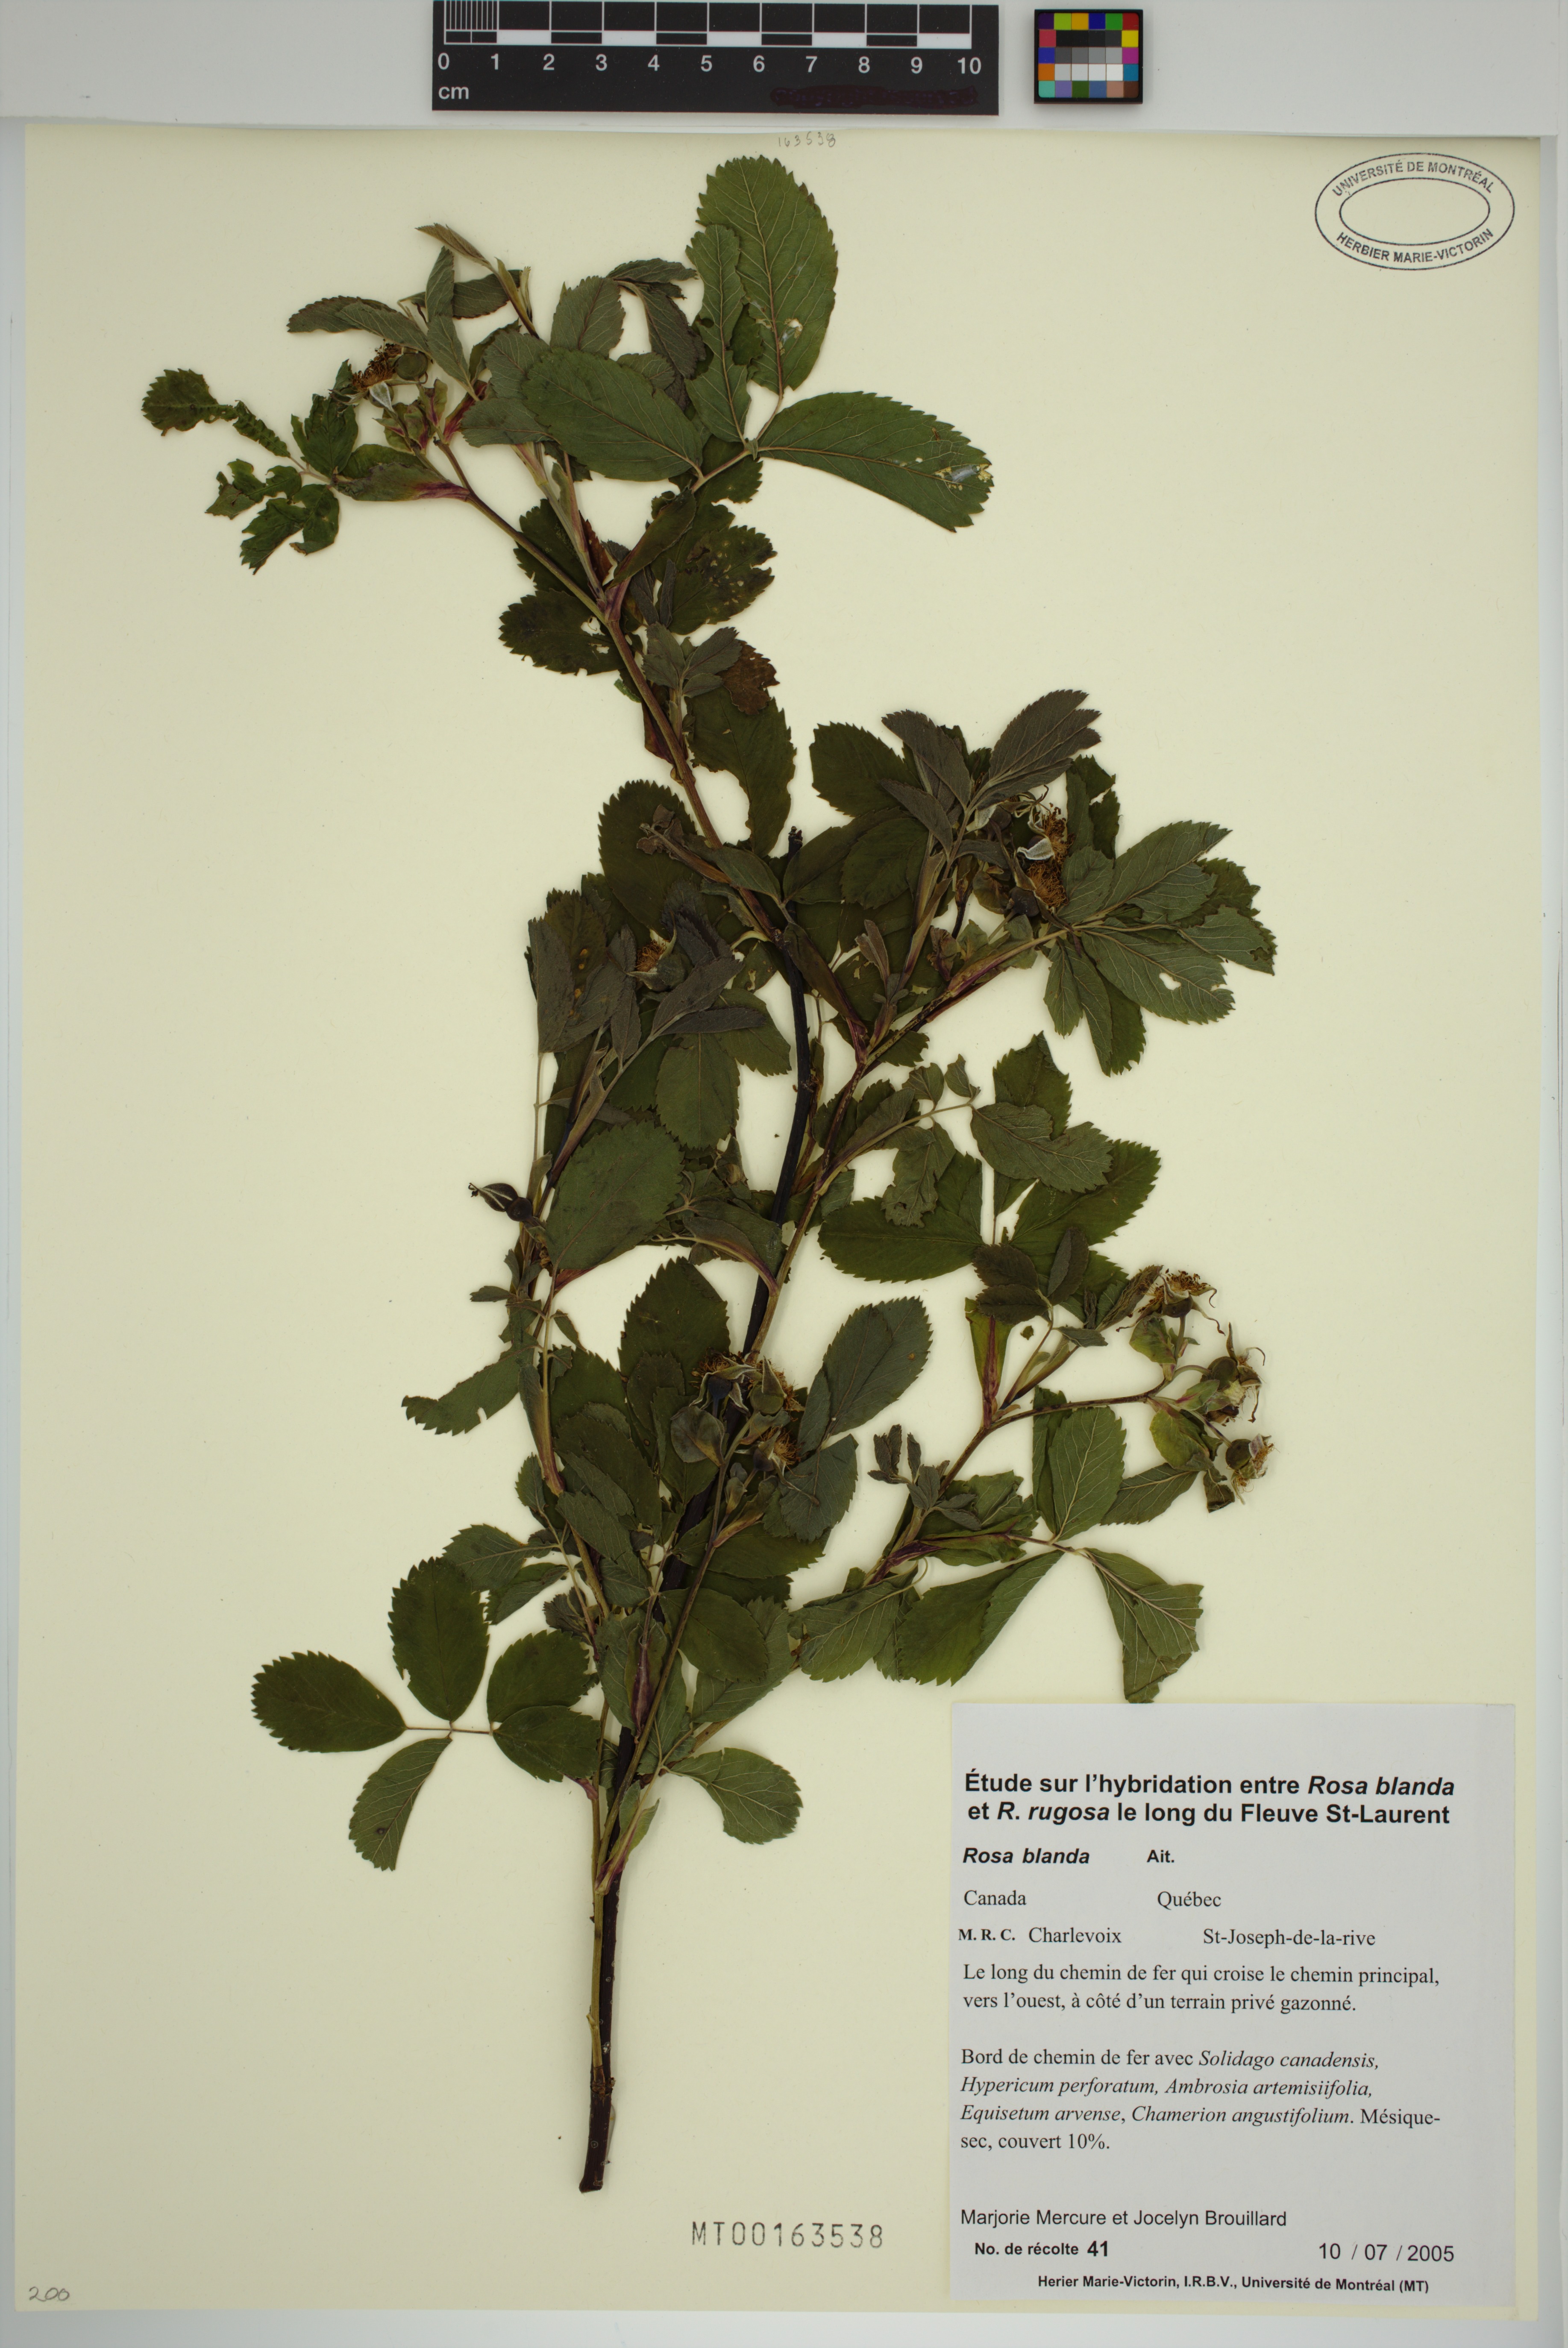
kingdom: Plantae
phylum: Tracheophyta
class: Magnoliopsida
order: Rosales
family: Rosaceae
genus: Rosa
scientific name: Rosa blanda
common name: Smooth rose
